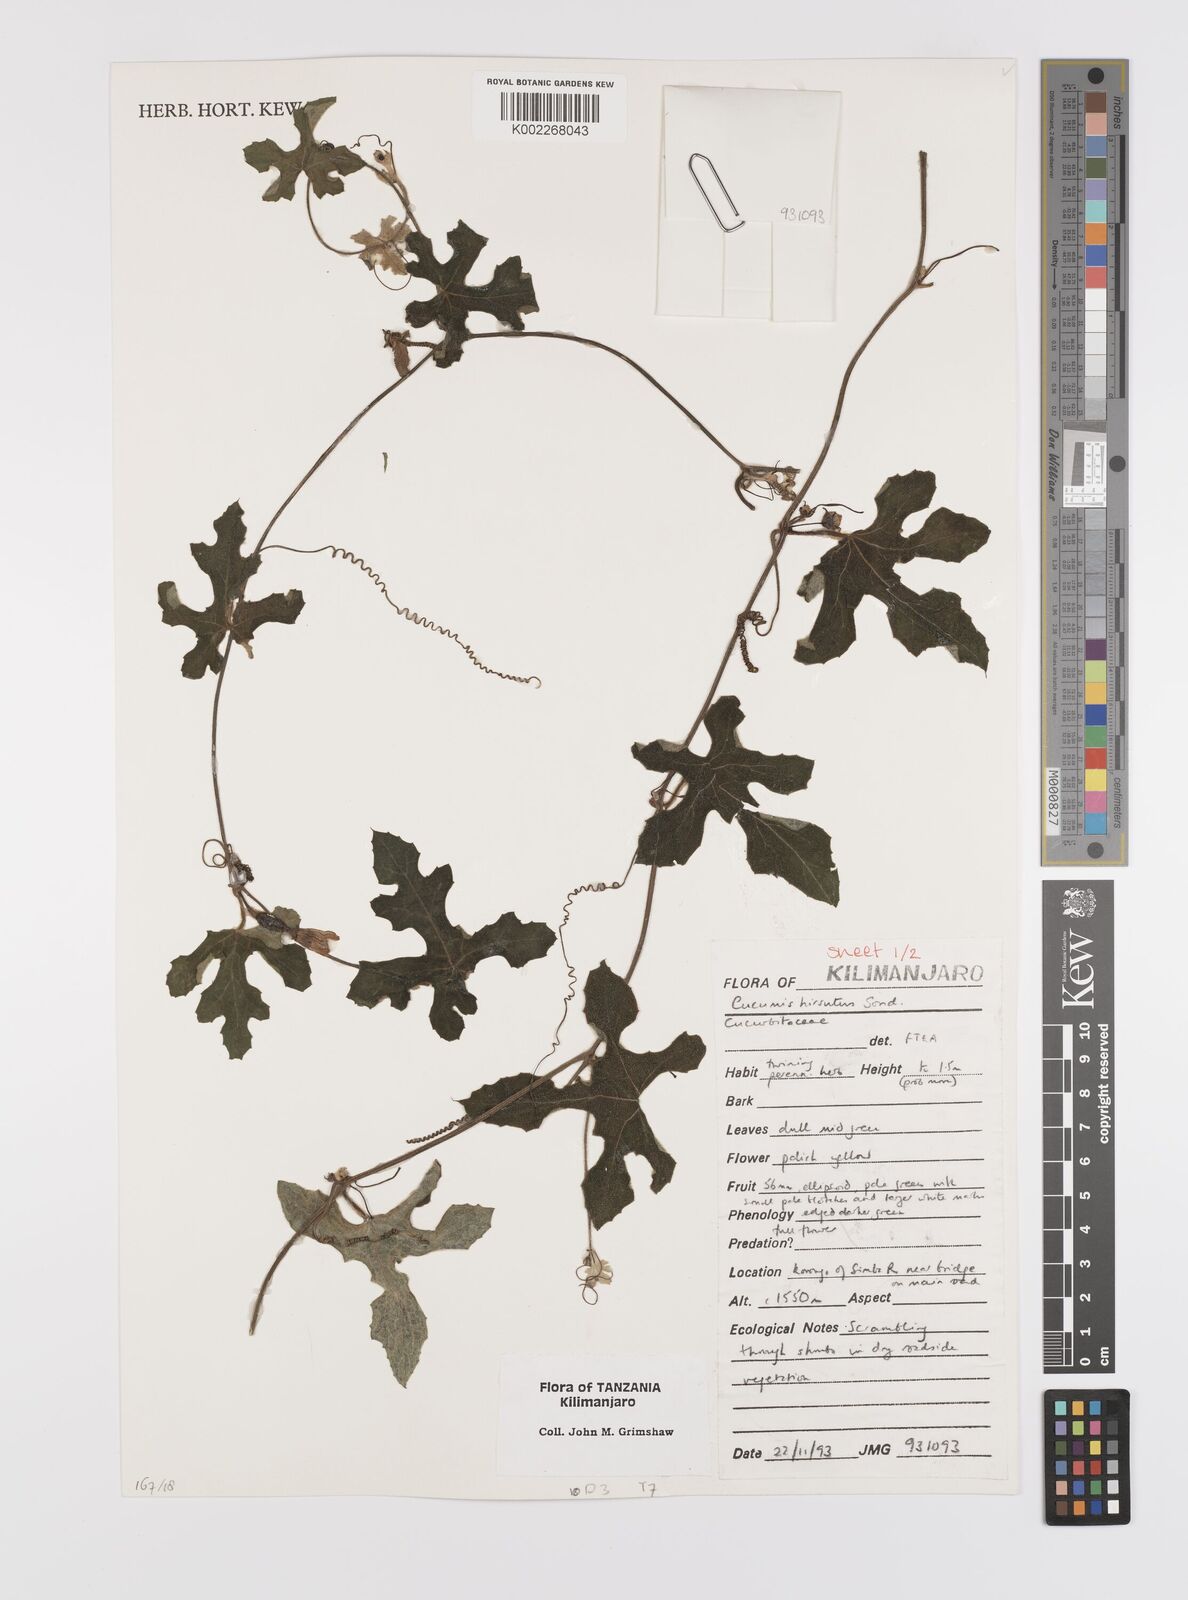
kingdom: Plantae
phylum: Tracheophyta
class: Magnoliopsida
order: Cucurbitales
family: Cucurbitaceae
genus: Cucumis
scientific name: Cucumis hirsutus
